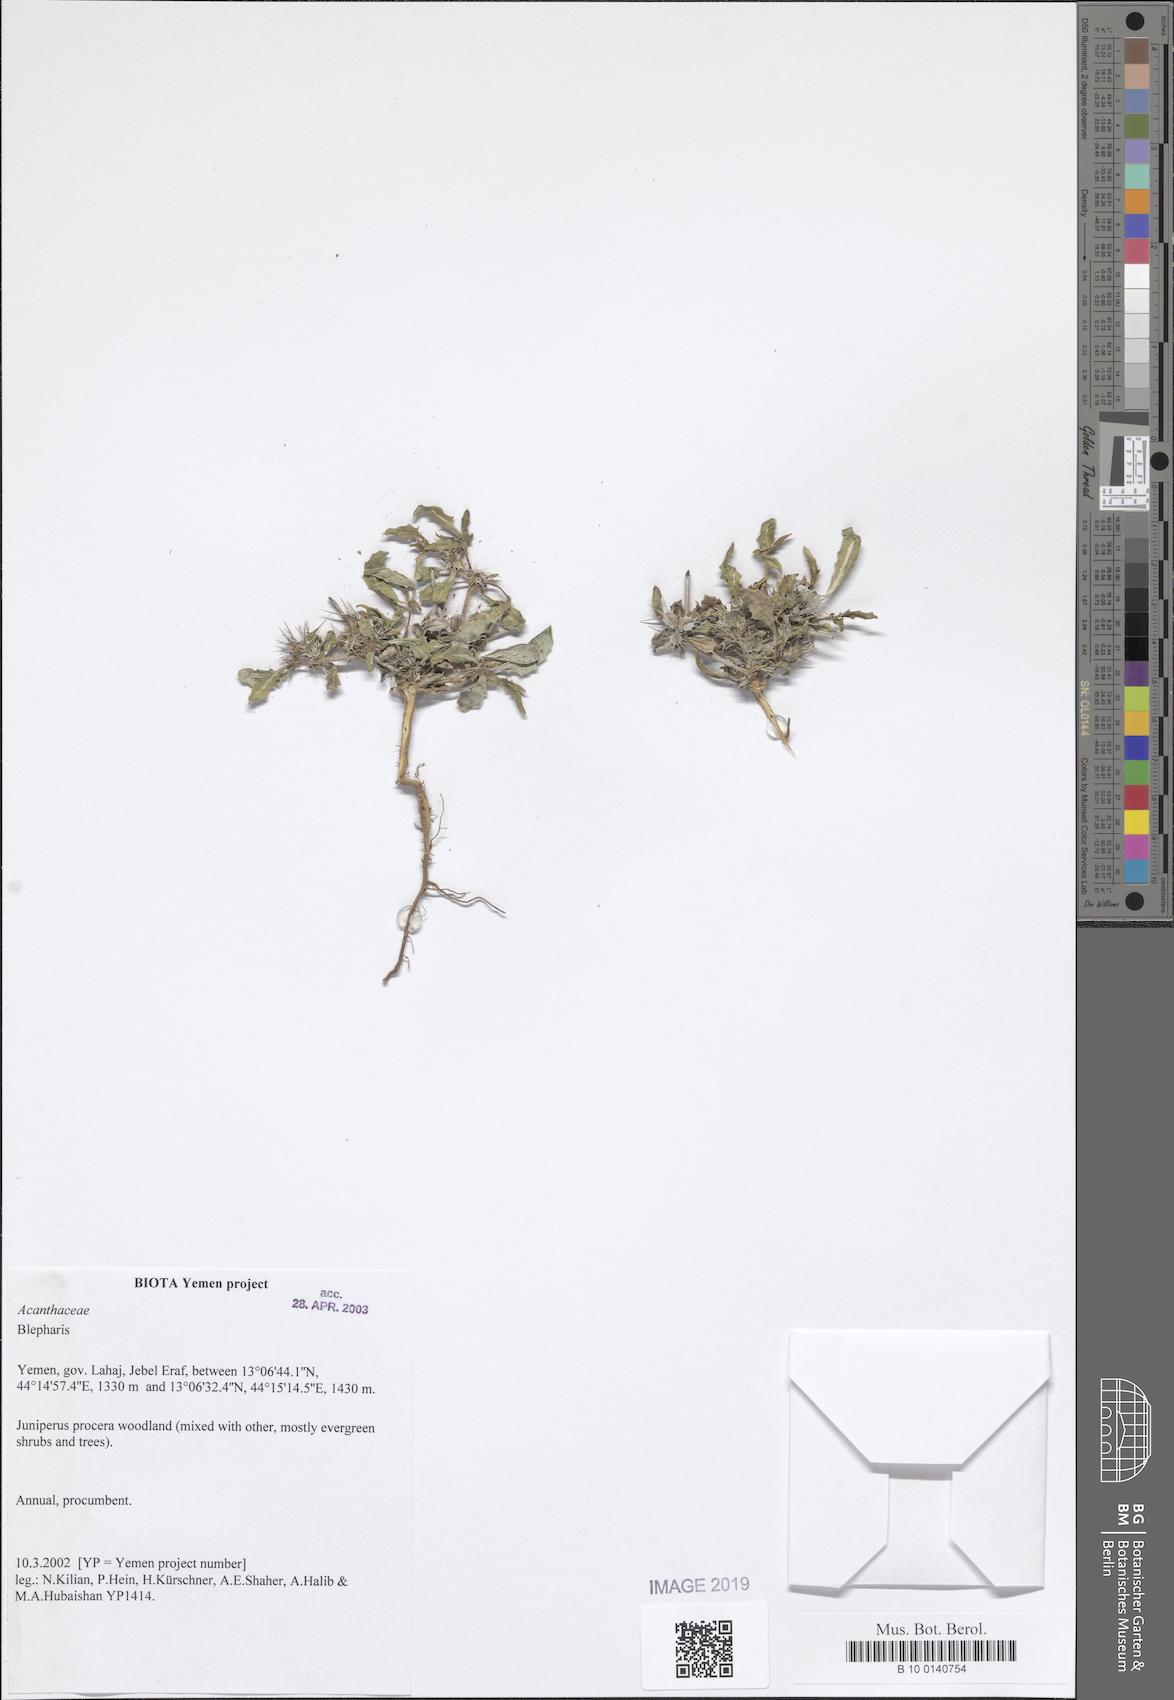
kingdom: Plantae
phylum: Tracheophyta
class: Magnoliopsida
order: Lamiales
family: Acanthaceae
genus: Blepharis
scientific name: Blepharis
